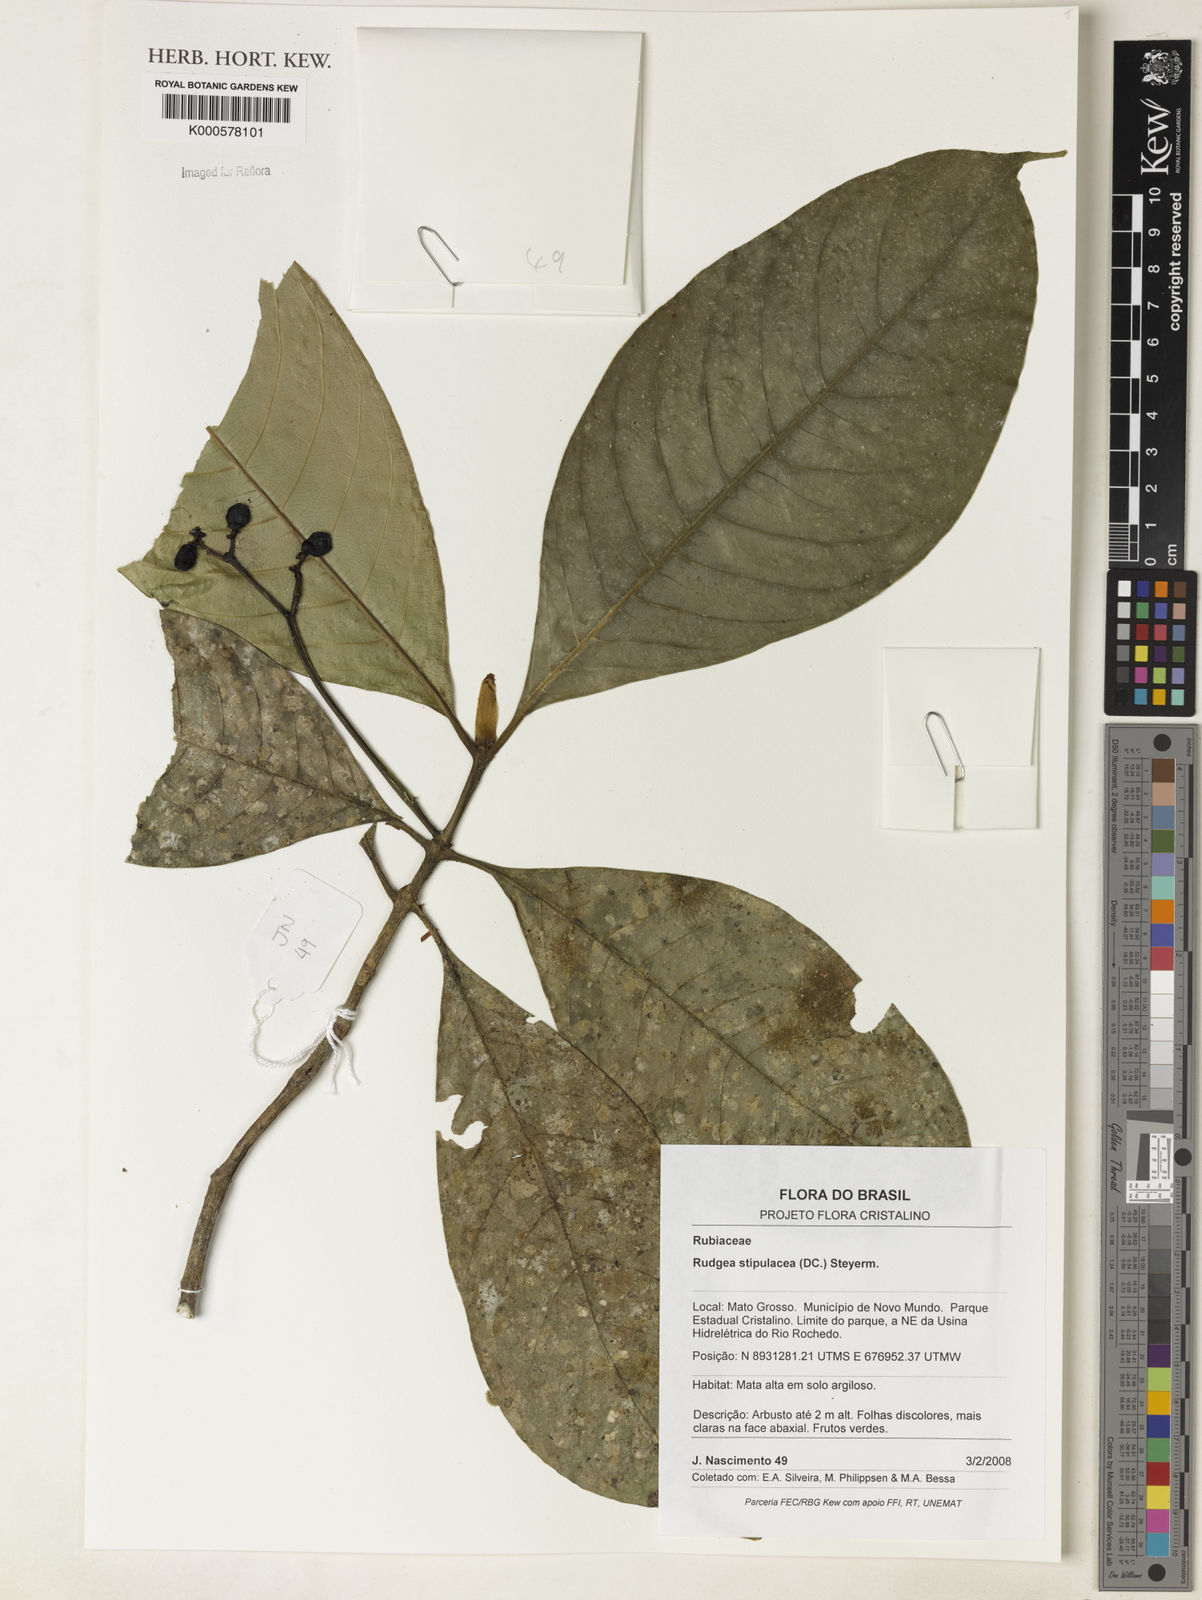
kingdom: Plantae
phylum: Tracheophyta
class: Magnoliopsida
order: Gentianales
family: Rubiaceae
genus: Rudgea
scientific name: Rudgea stipulacea
